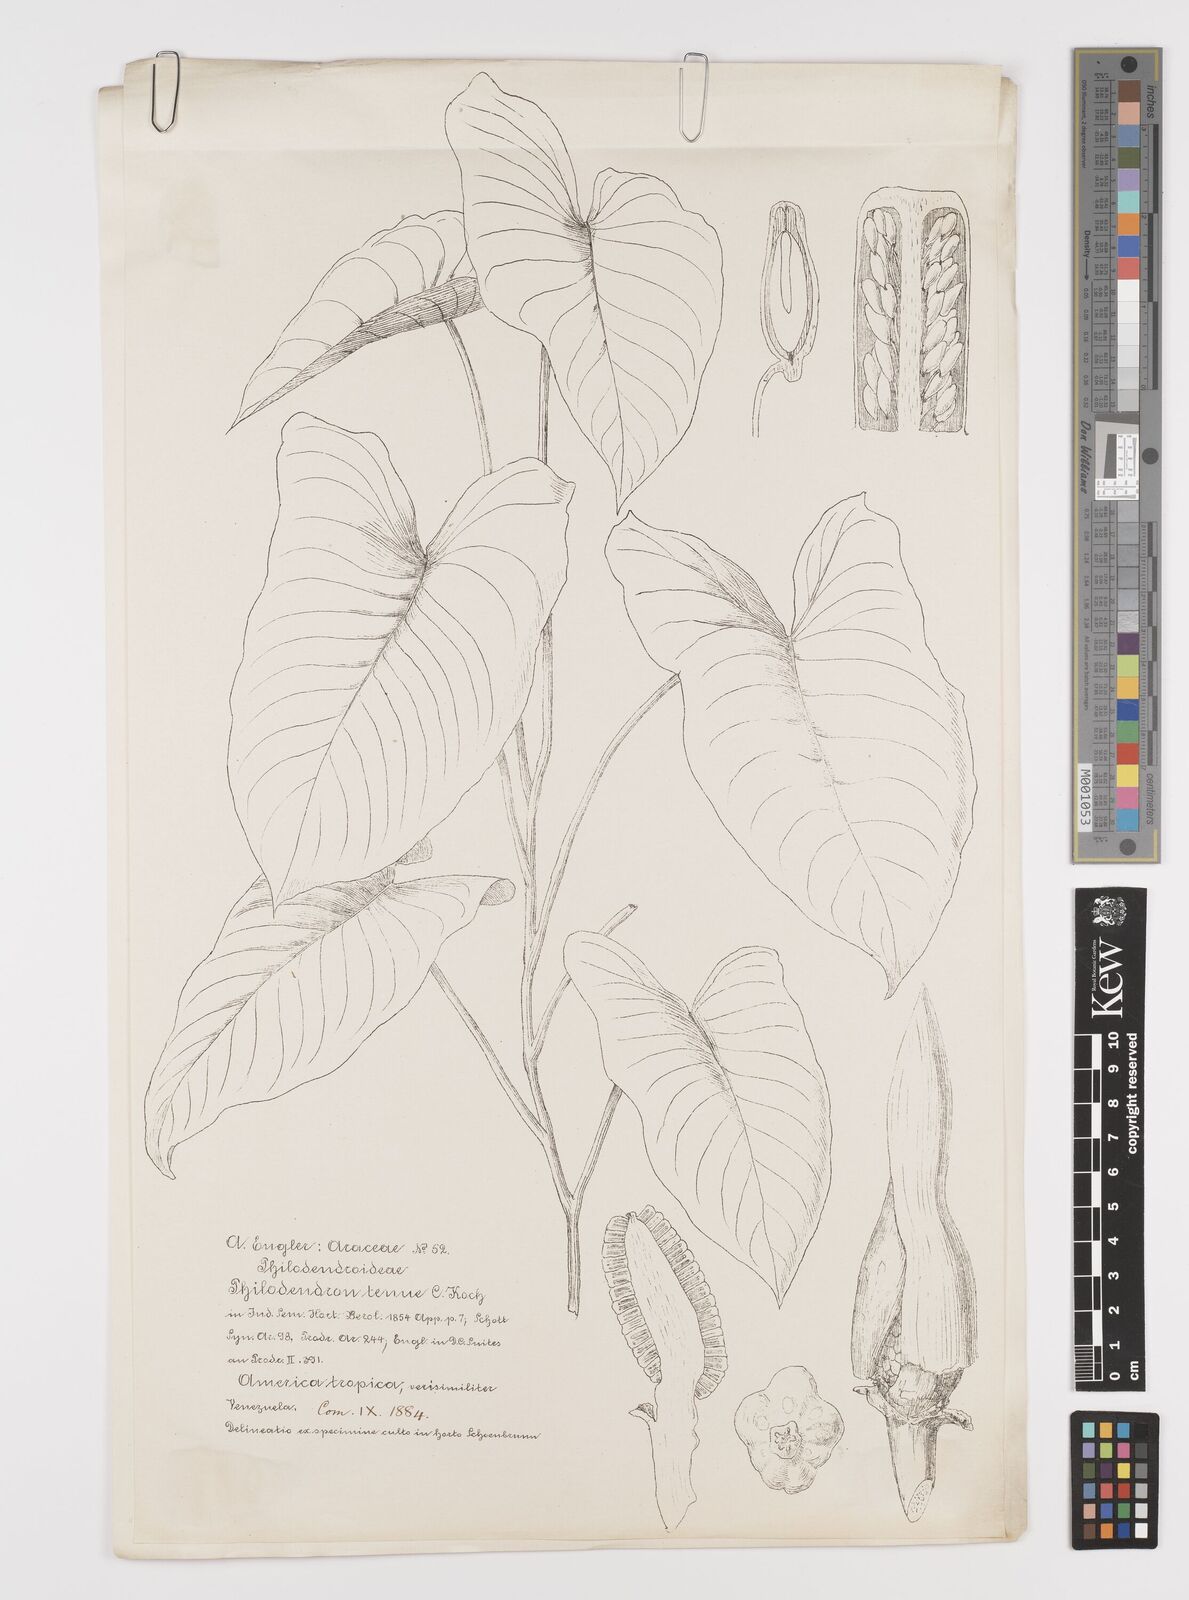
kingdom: Plantae
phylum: Tracheophyta
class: Liliopsida
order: Alismatales
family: Araceae
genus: Philodendron
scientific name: Philodendron tenue
